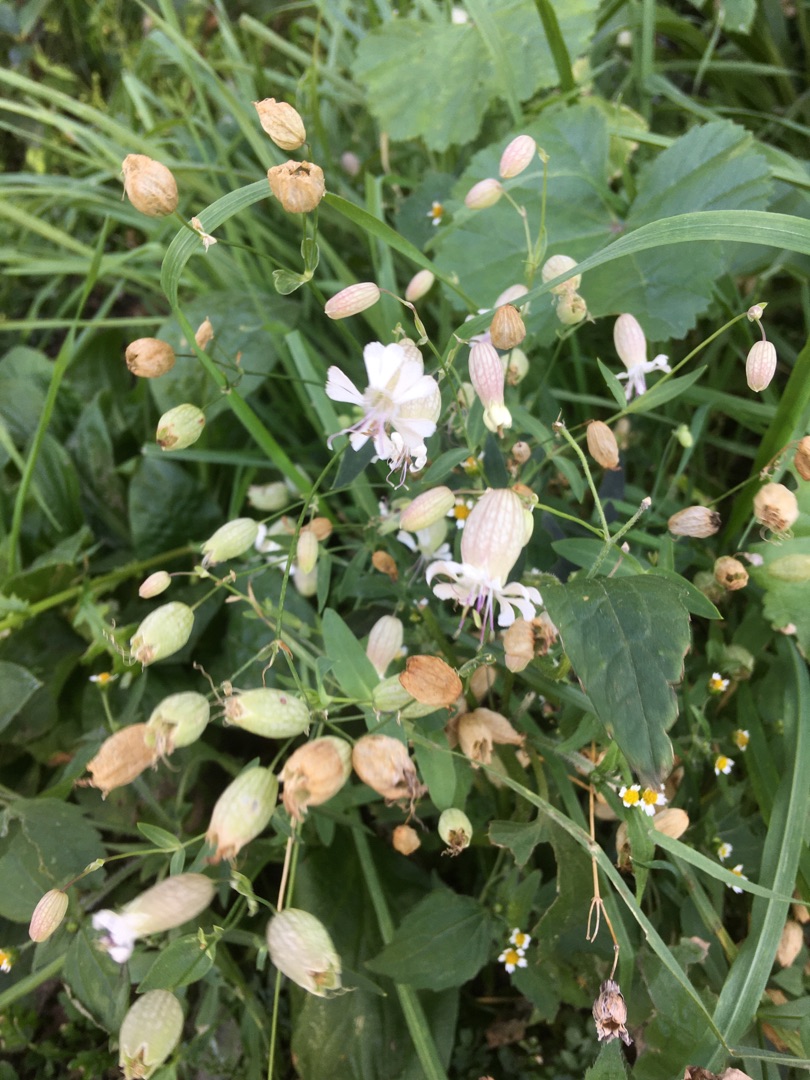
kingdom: Plantae
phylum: Tracheophyta
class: Magnoliopsida
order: Caryophyllales
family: Caryophyllaceae
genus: Silene
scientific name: Silene vulgaris
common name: Blæresmælde
